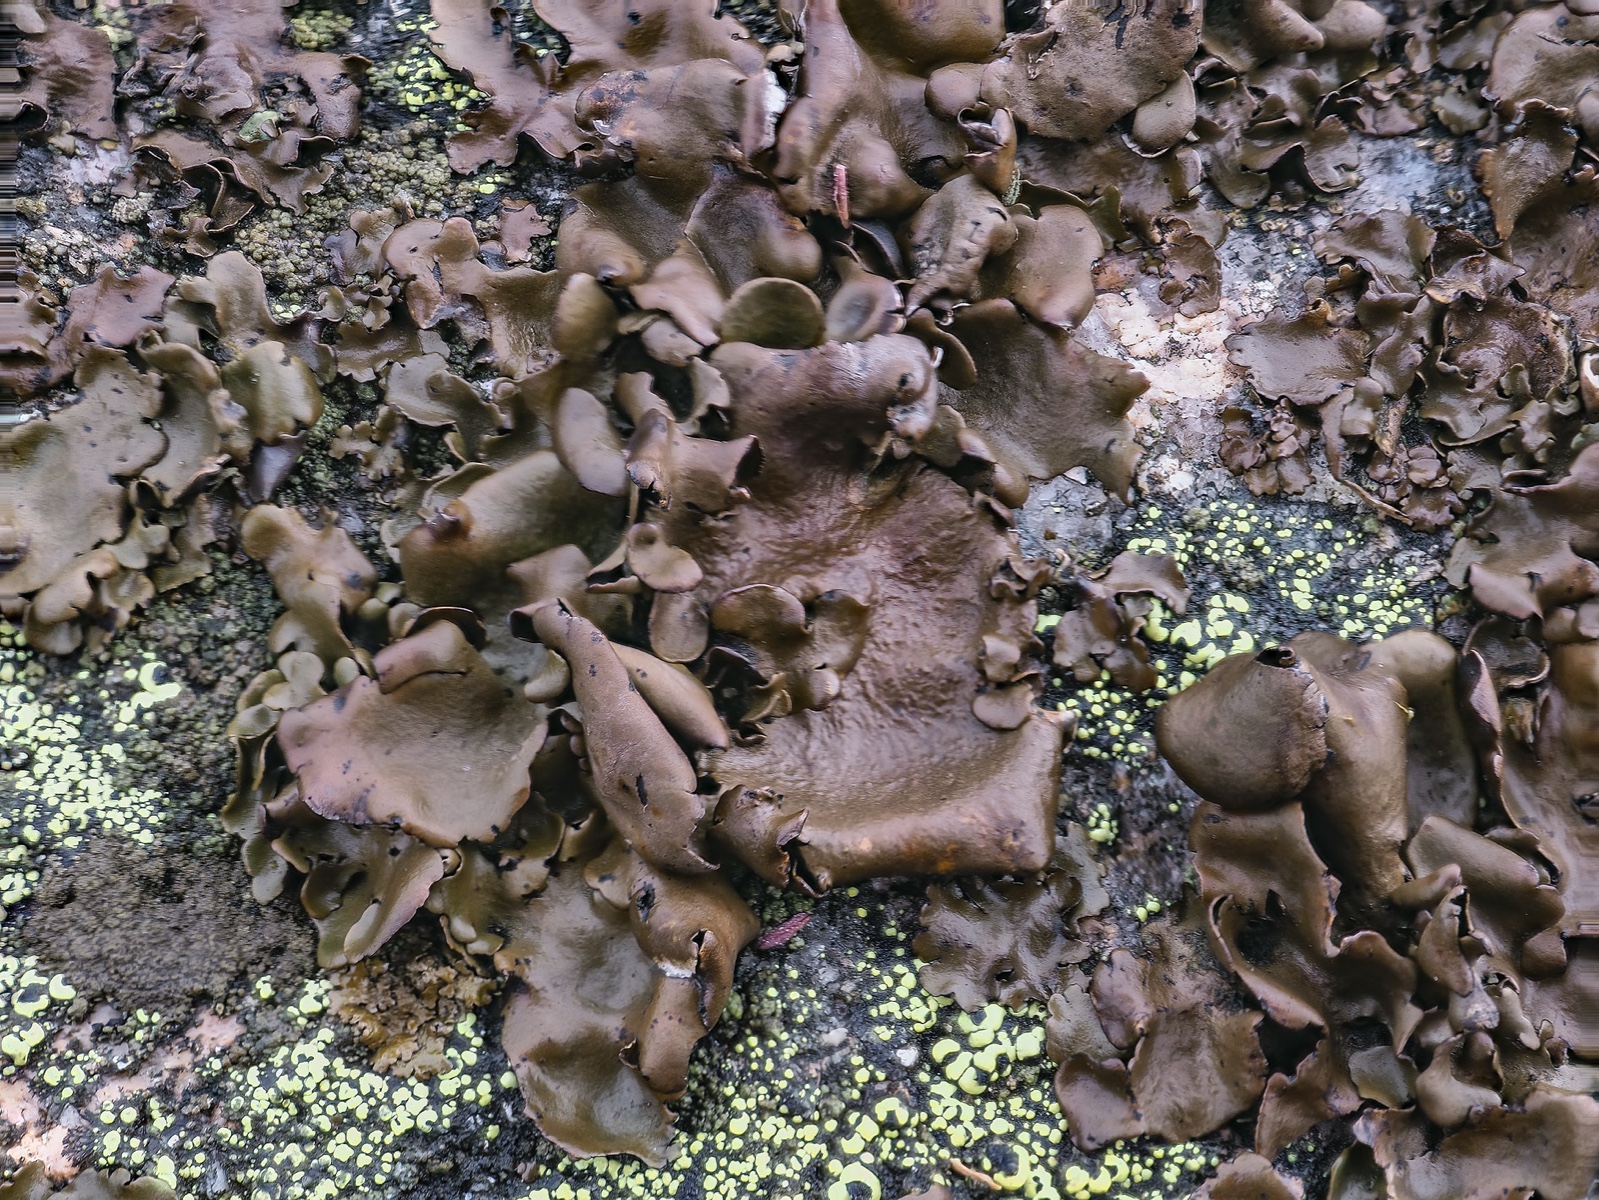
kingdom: Fungi
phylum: Ascomycota
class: Lecanoromycetes
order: Umbilicariales
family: Umbilicariaceae
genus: Umbilicaria
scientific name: Umbilicaria polyphylla
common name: glat navlelav
